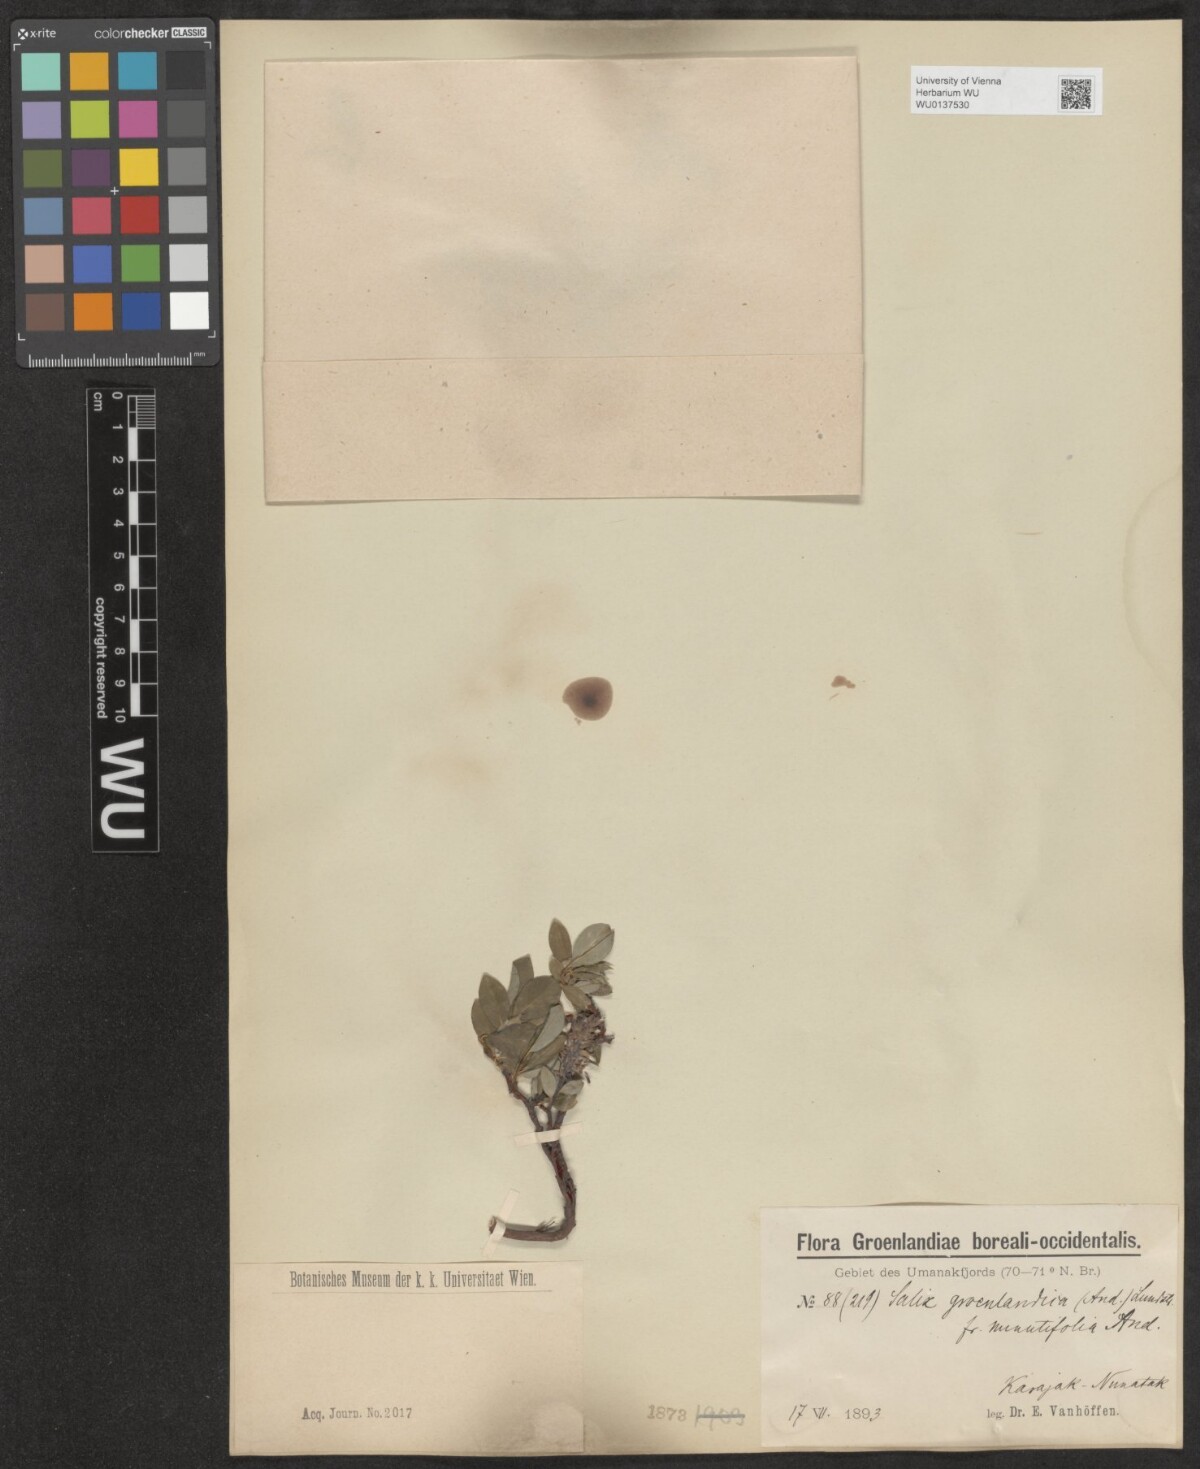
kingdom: Plantae
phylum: Tracheophyta
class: Magnoliopsida
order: Malpighiales
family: Salicaceae
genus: Salix
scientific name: Salix arctophila
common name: Greenland willow
